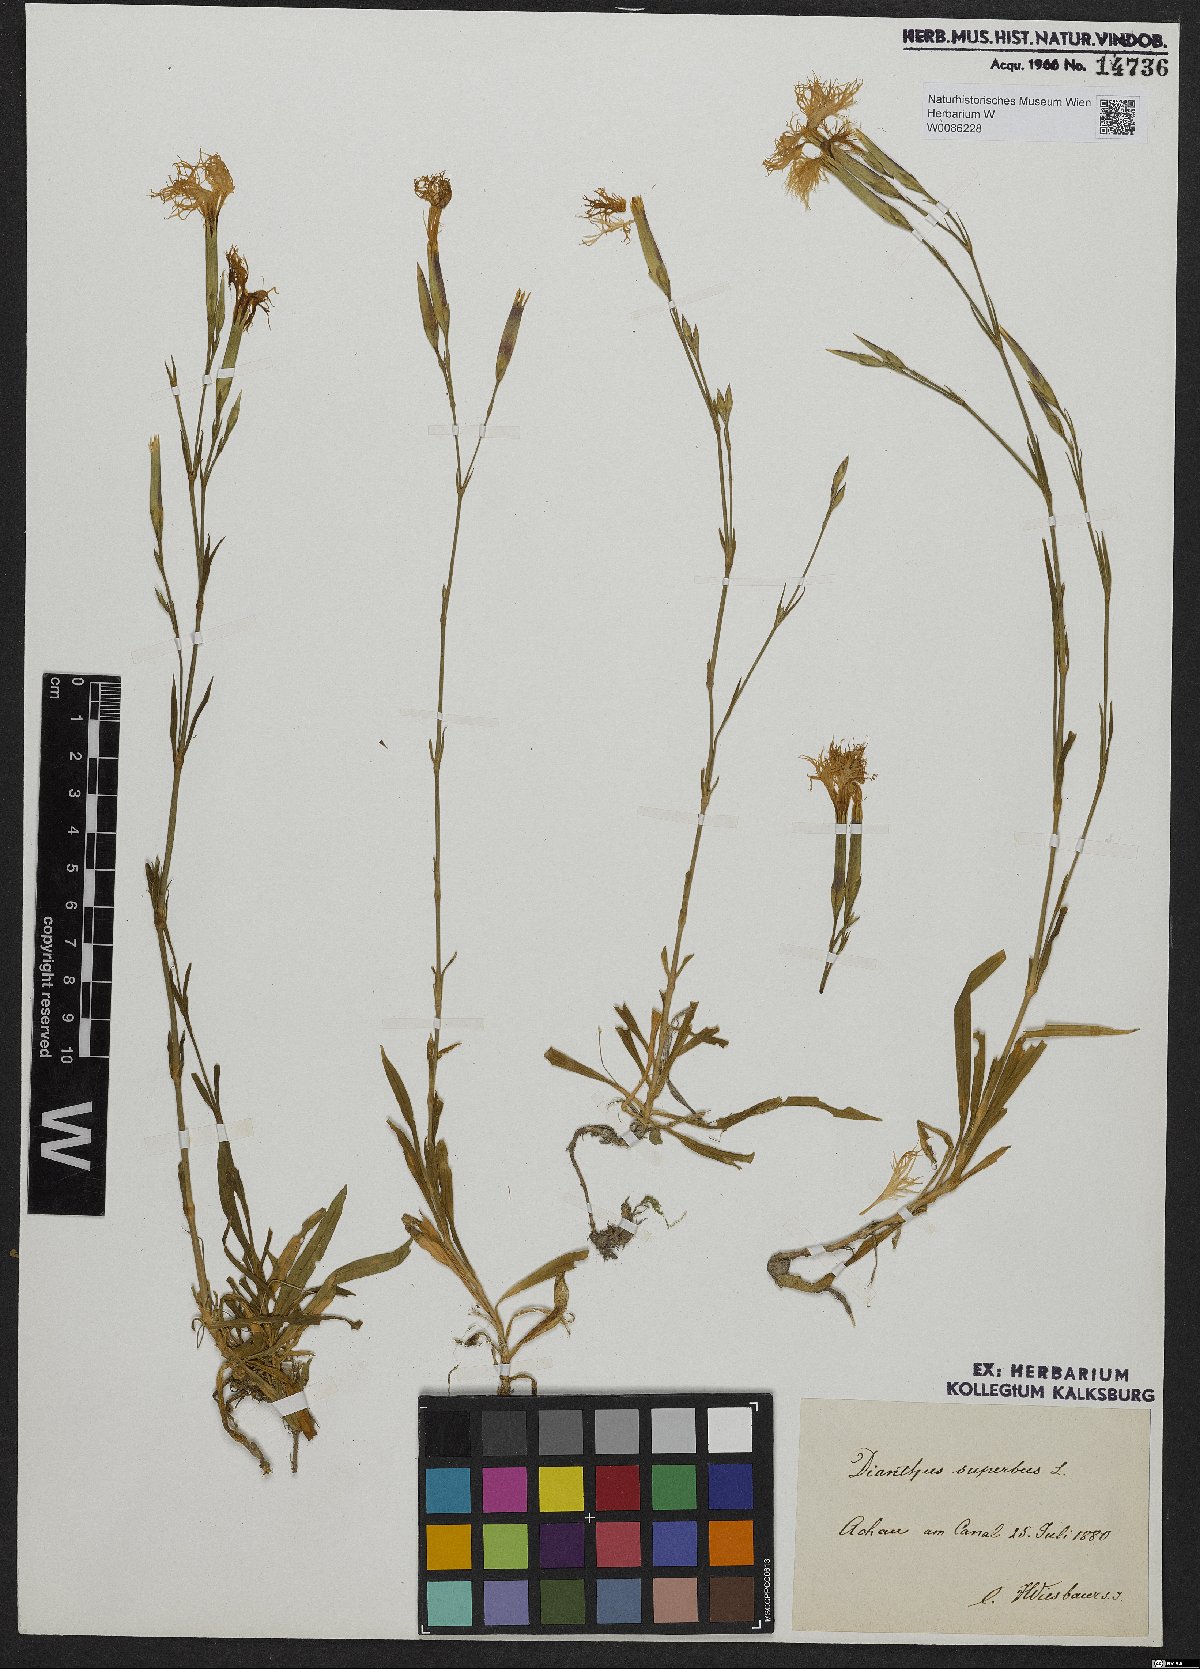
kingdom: Plantae
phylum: Tracheophyta
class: Magnoliopsida
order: Caryophyllales
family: Caryophyllaceae
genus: Dianthus
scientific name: Dianthus superbus
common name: Fringed pink
